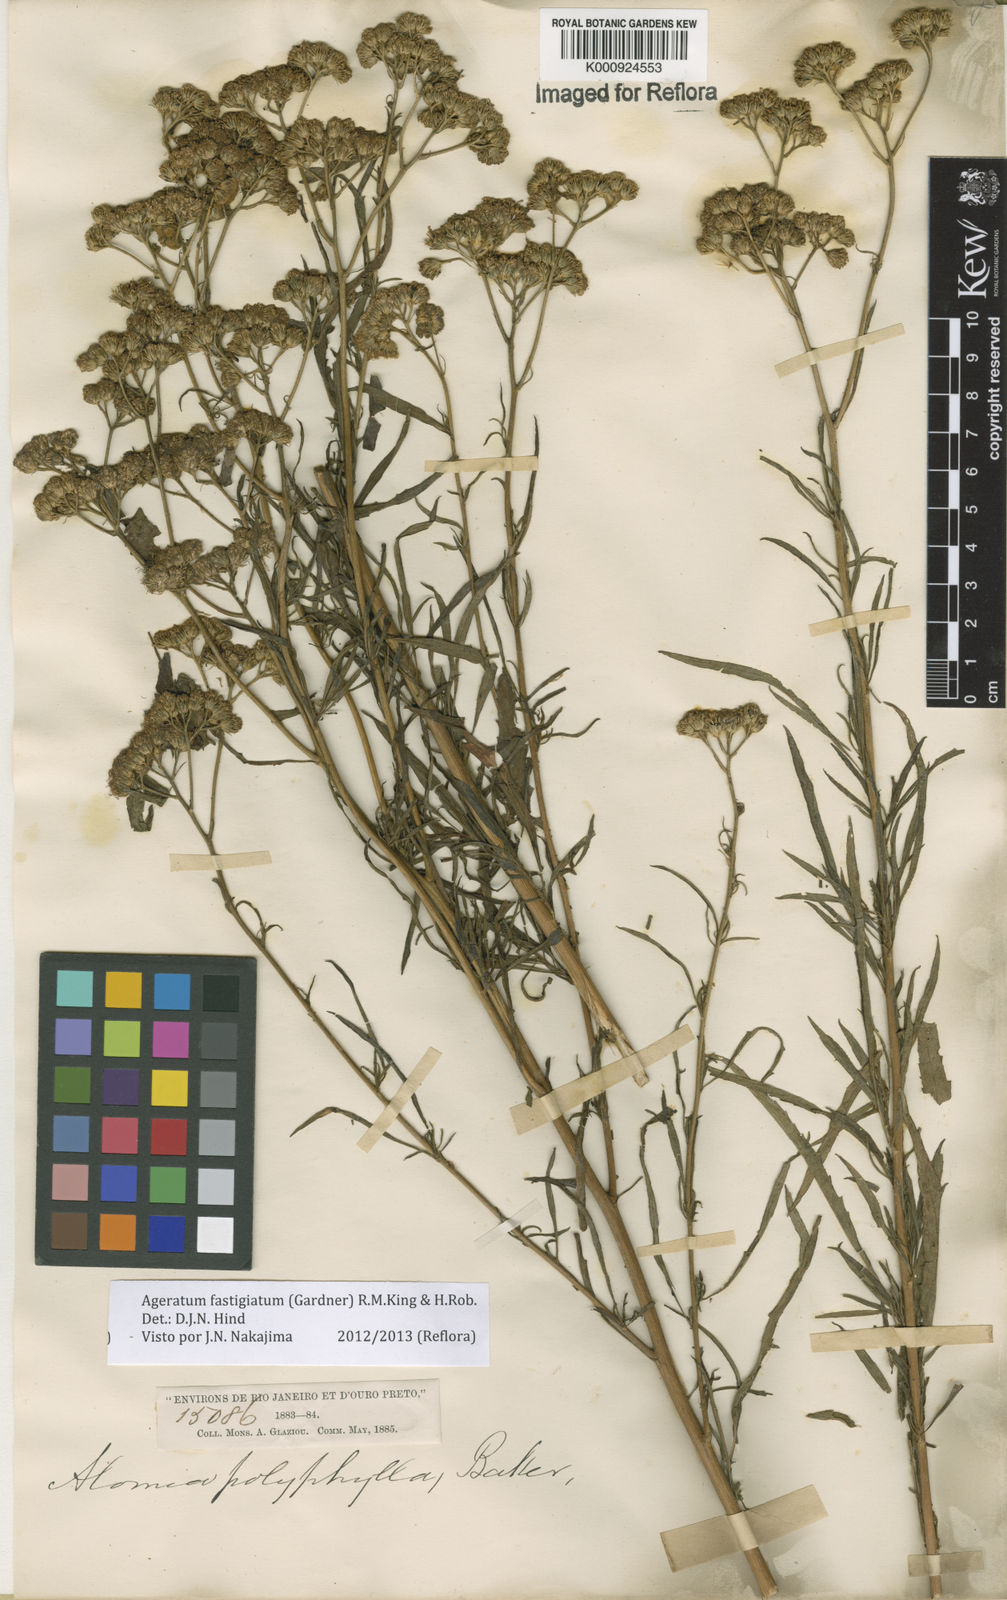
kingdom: Plantae
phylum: Tracheophyta
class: Magnoliopsida
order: Asterales
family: Asteraceae
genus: Ageratum
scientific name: Ageratum fastigiatum
